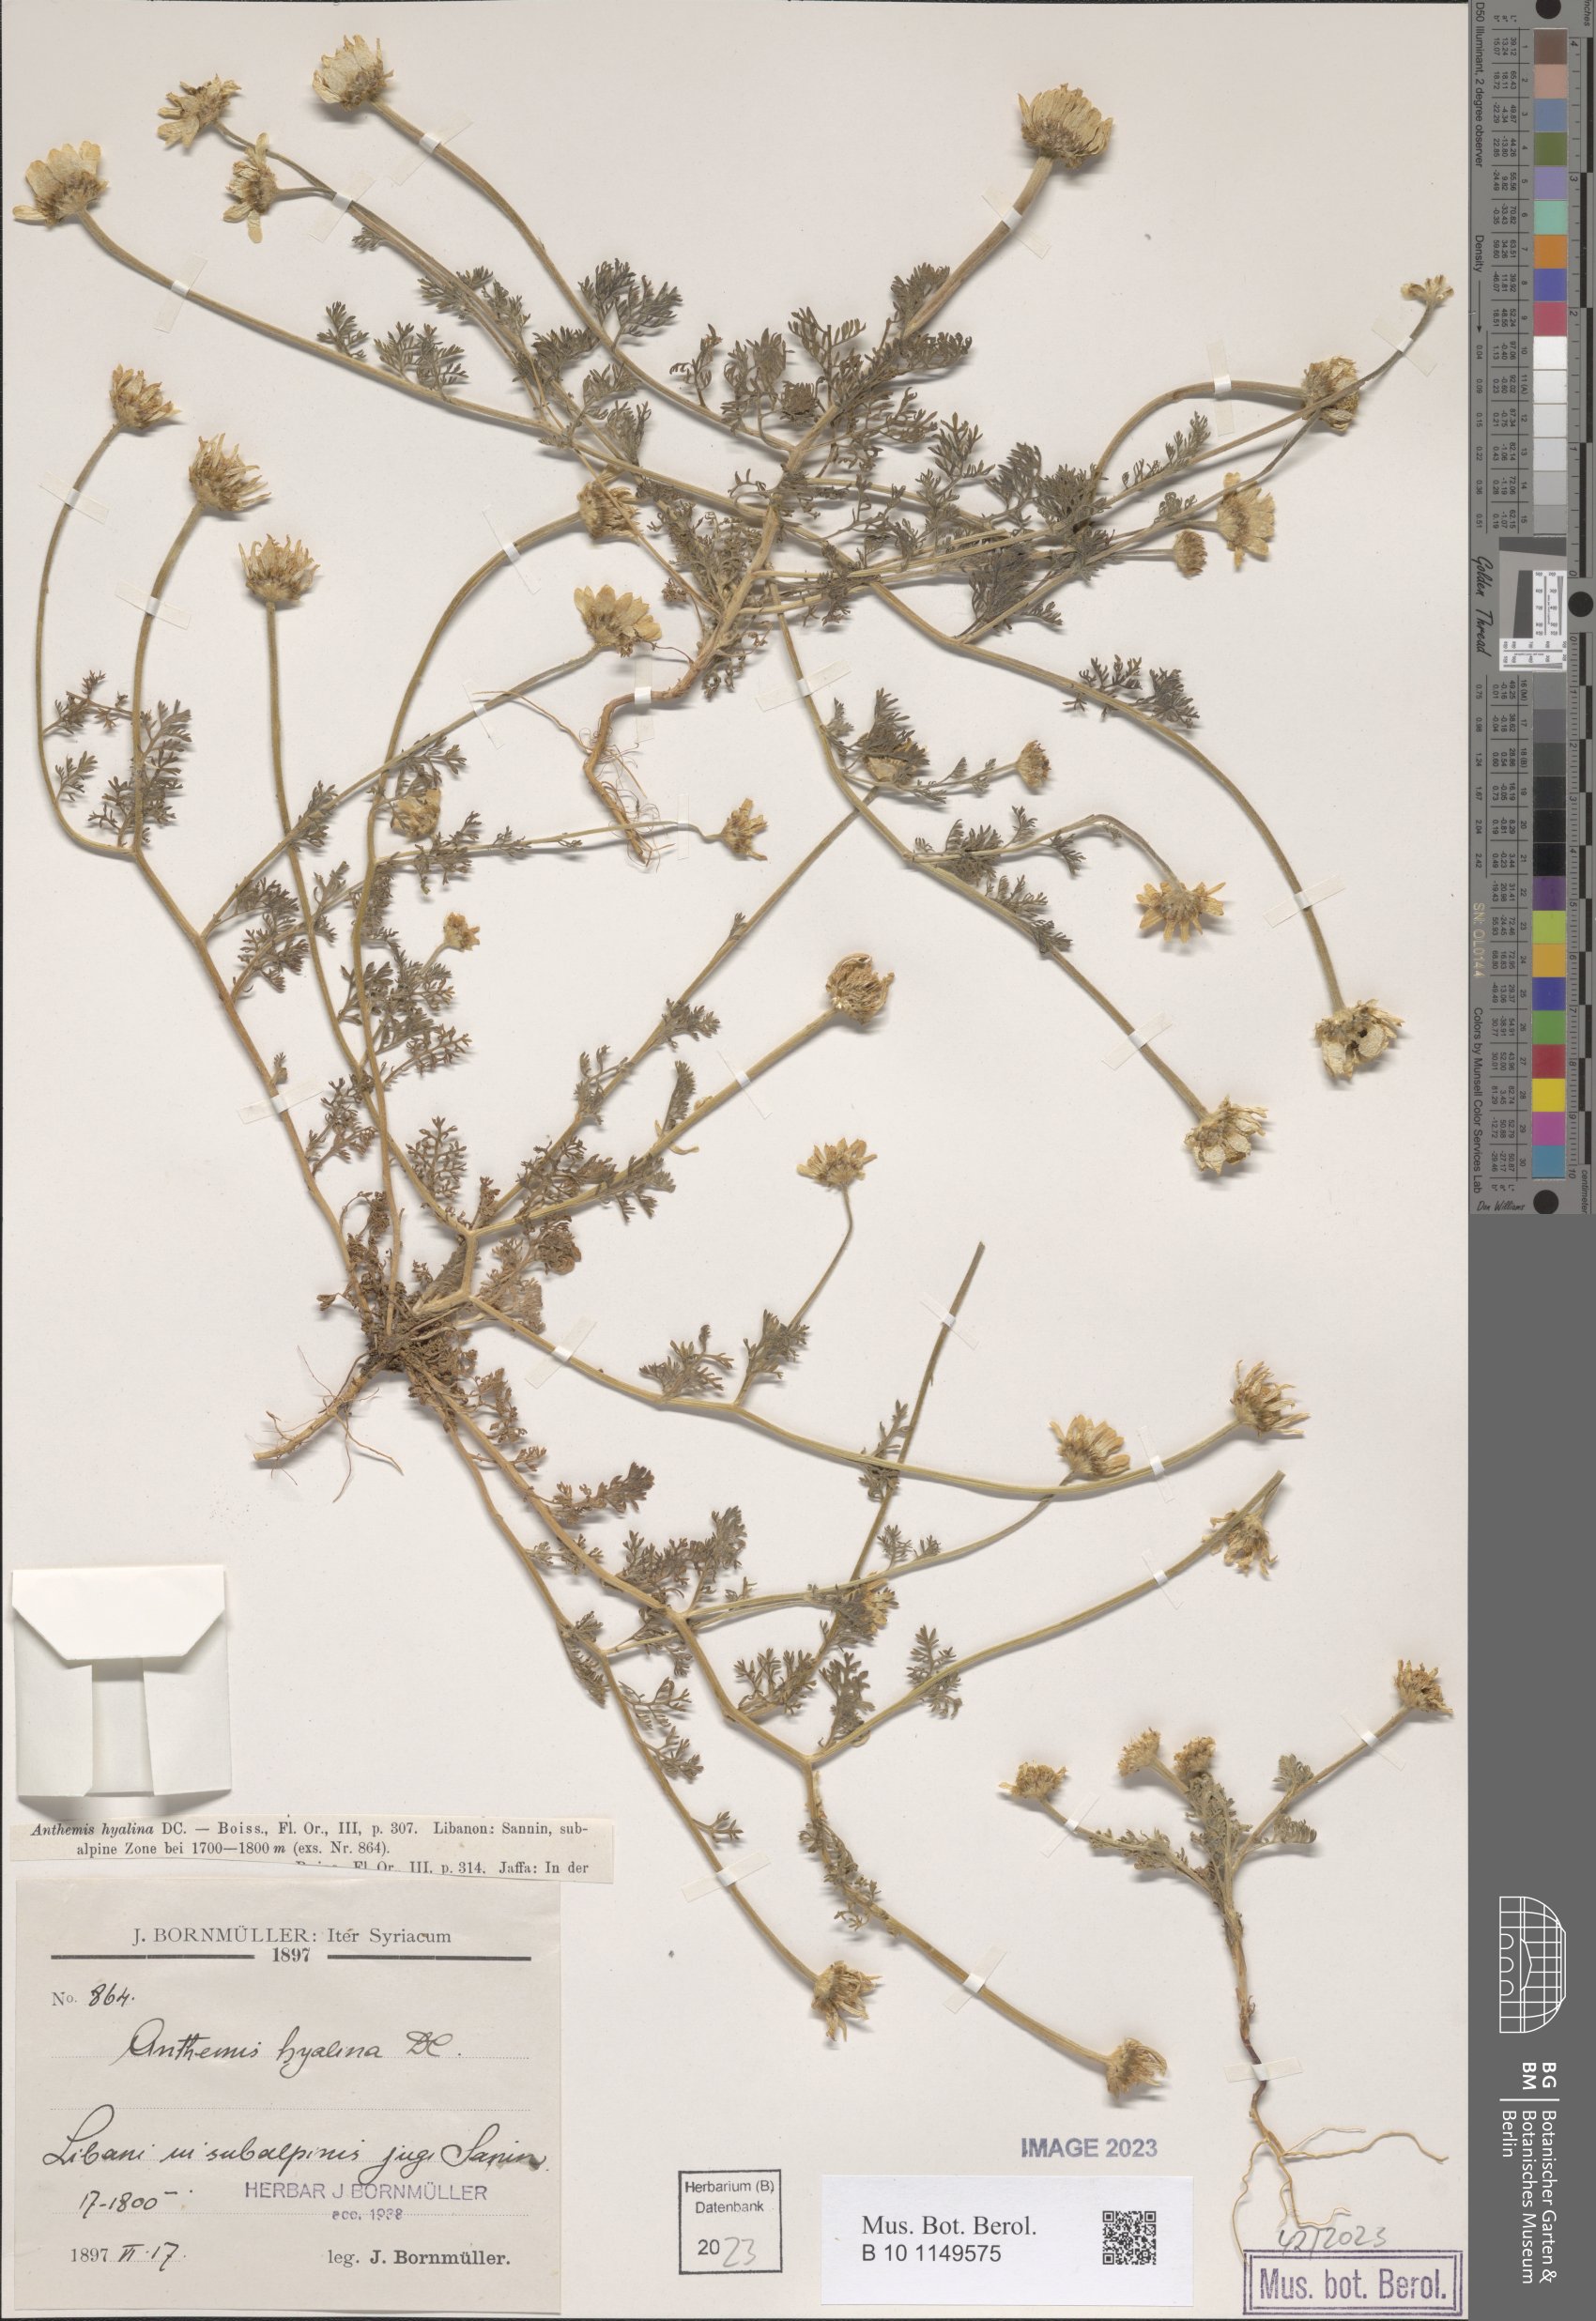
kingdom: Plantae
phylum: Tracheophyta
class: Magnoliopsida
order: Asterales
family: Asteraceae
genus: Anthemis
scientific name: Anthemis hyalina
